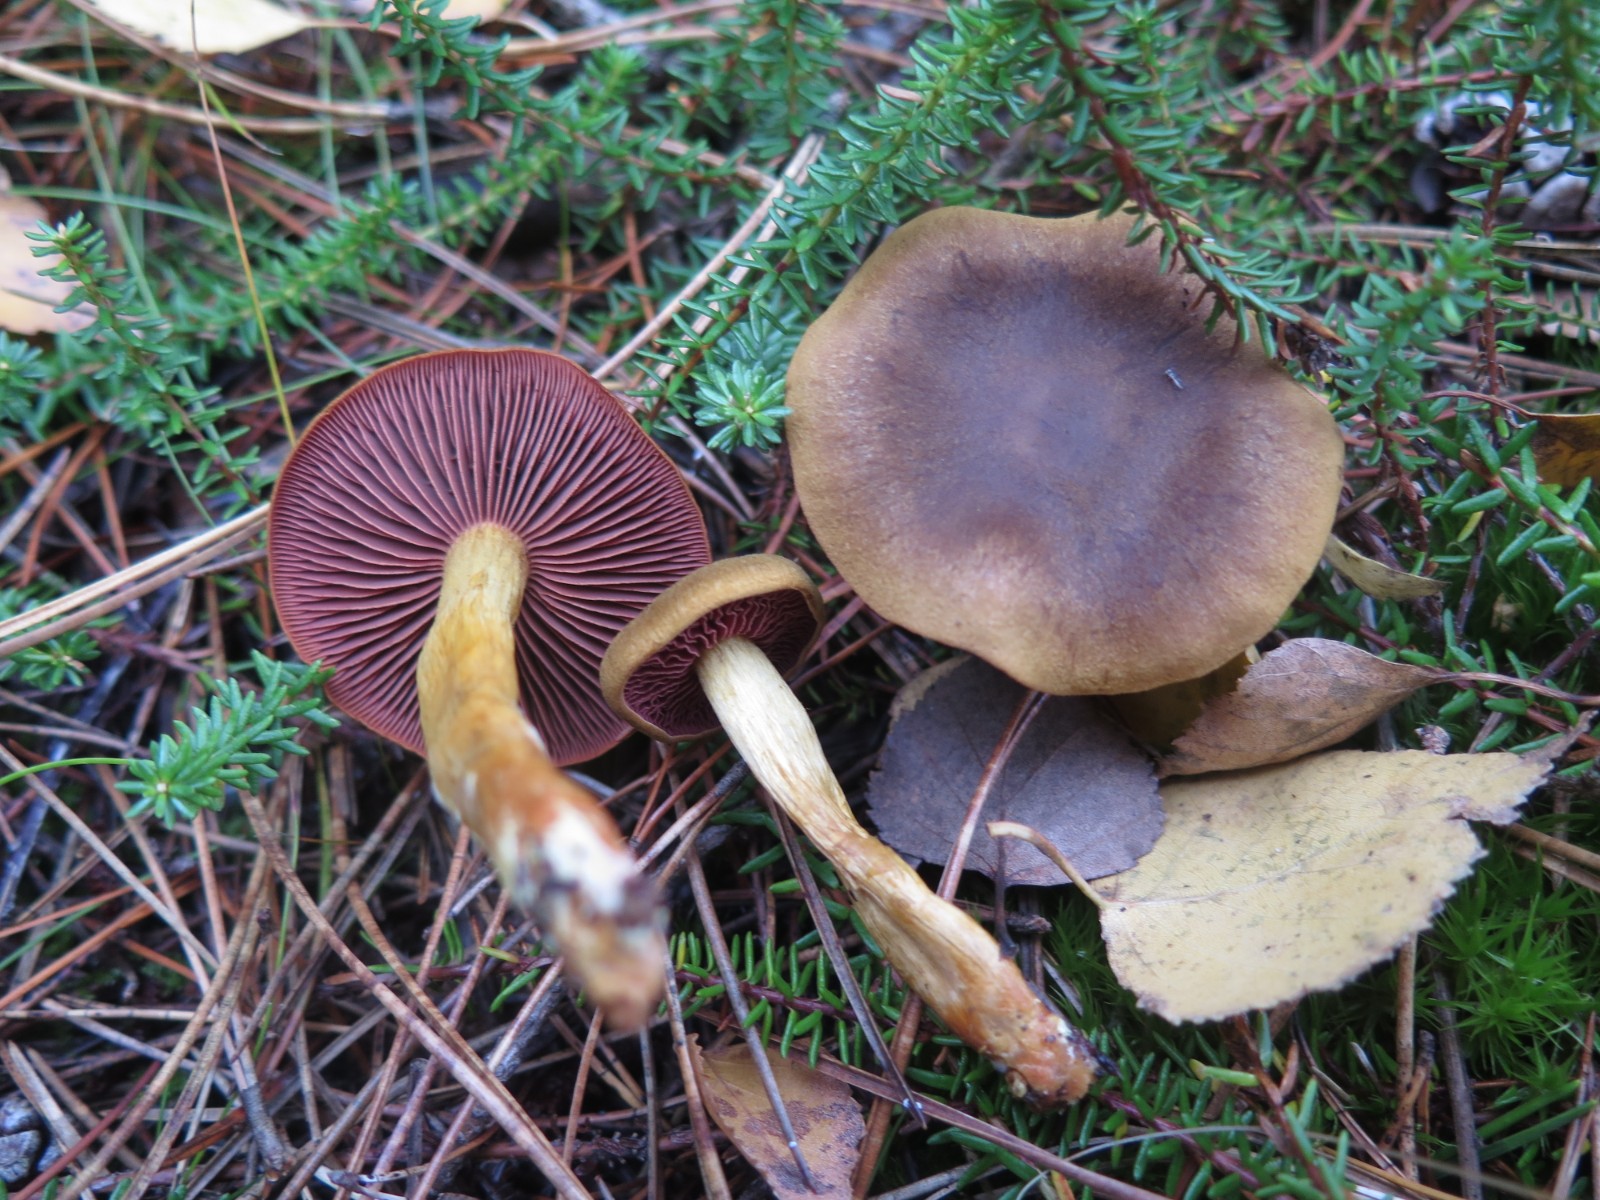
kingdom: Fungi
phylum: Basidiomycota
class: Agaricomycetes
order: Agaricales
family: Cortinariaceae
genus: Cortinarius
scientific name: Cortinarius
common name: cinnoberbladet slørhat
